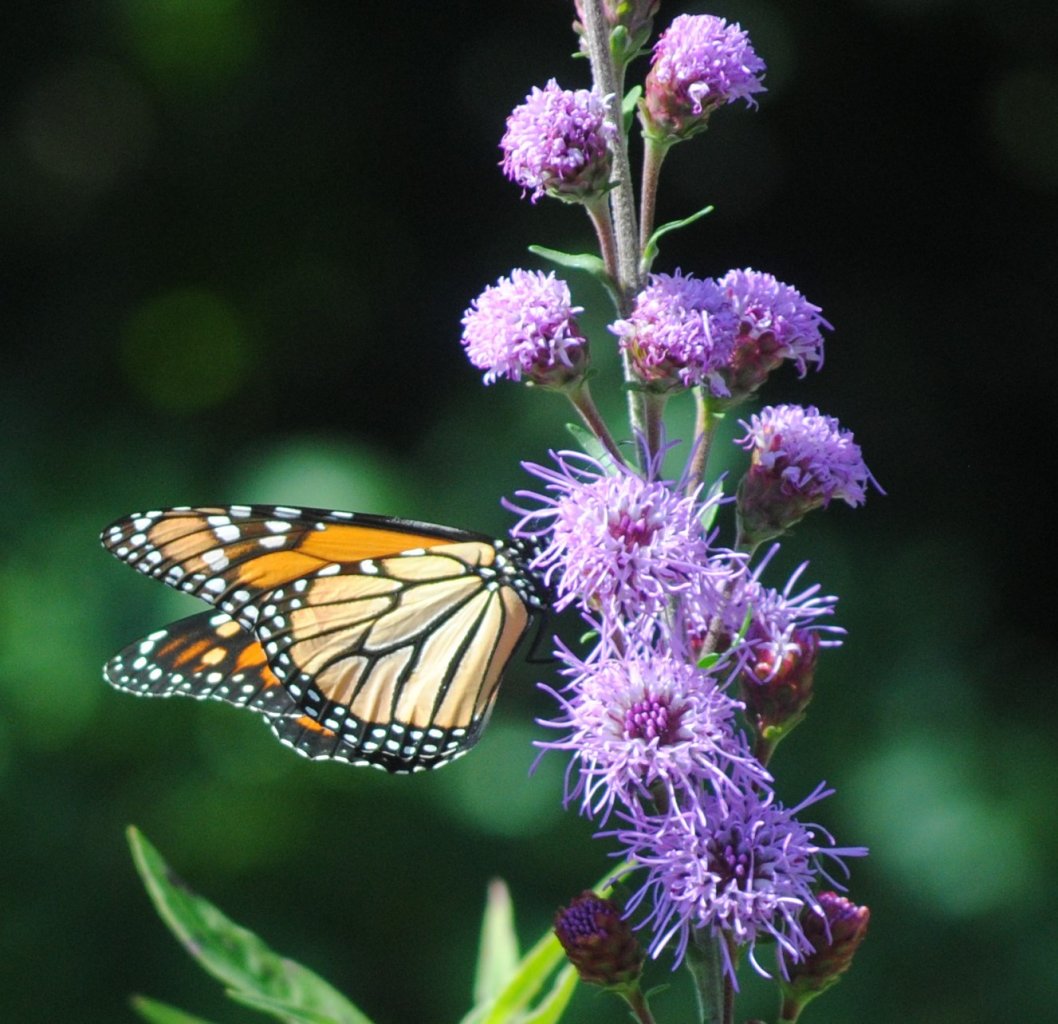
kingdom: Animalia
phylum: Arthropoda
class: Insecta
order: Lepidoptera
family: Nymphalidae
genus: Danaus
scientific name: Danaus plexippus
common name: Monarch
